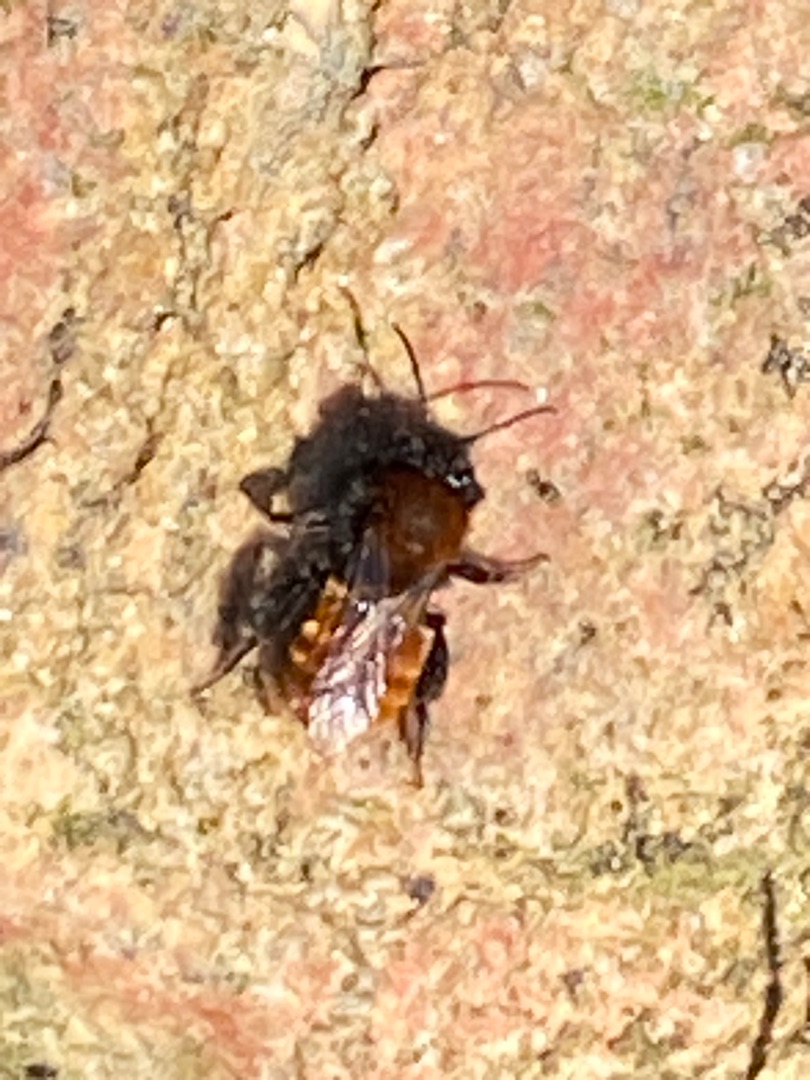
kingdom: Animalia
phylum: Arthropoda
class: Insecta
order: Hymenoptera
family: Andrenidae
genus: Andrena
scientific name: Andrena fulva
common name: Rødpelset jordbi
